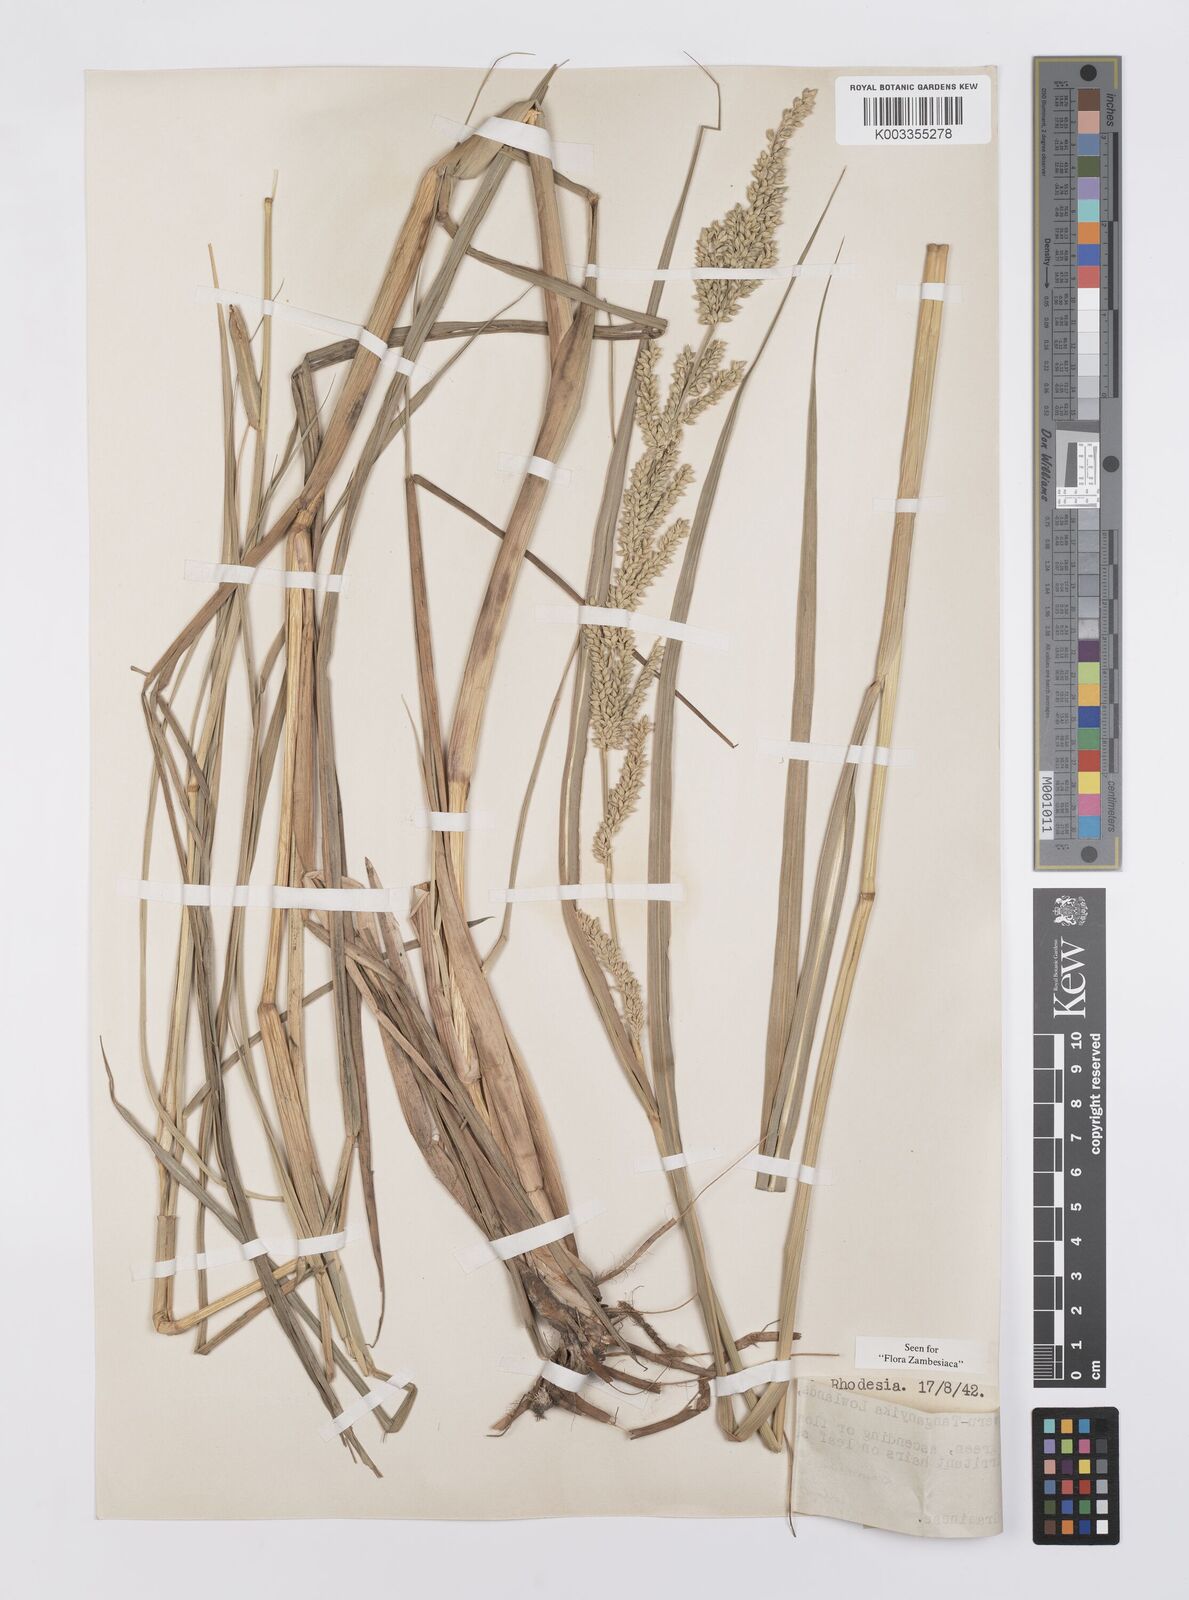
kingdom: Plantae
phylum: Tracheophyta
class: Liliopsida
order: Poales
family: Poaceae
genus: Echinochloa
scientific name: Echinochloa pyramidalis
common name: Antelope grass
